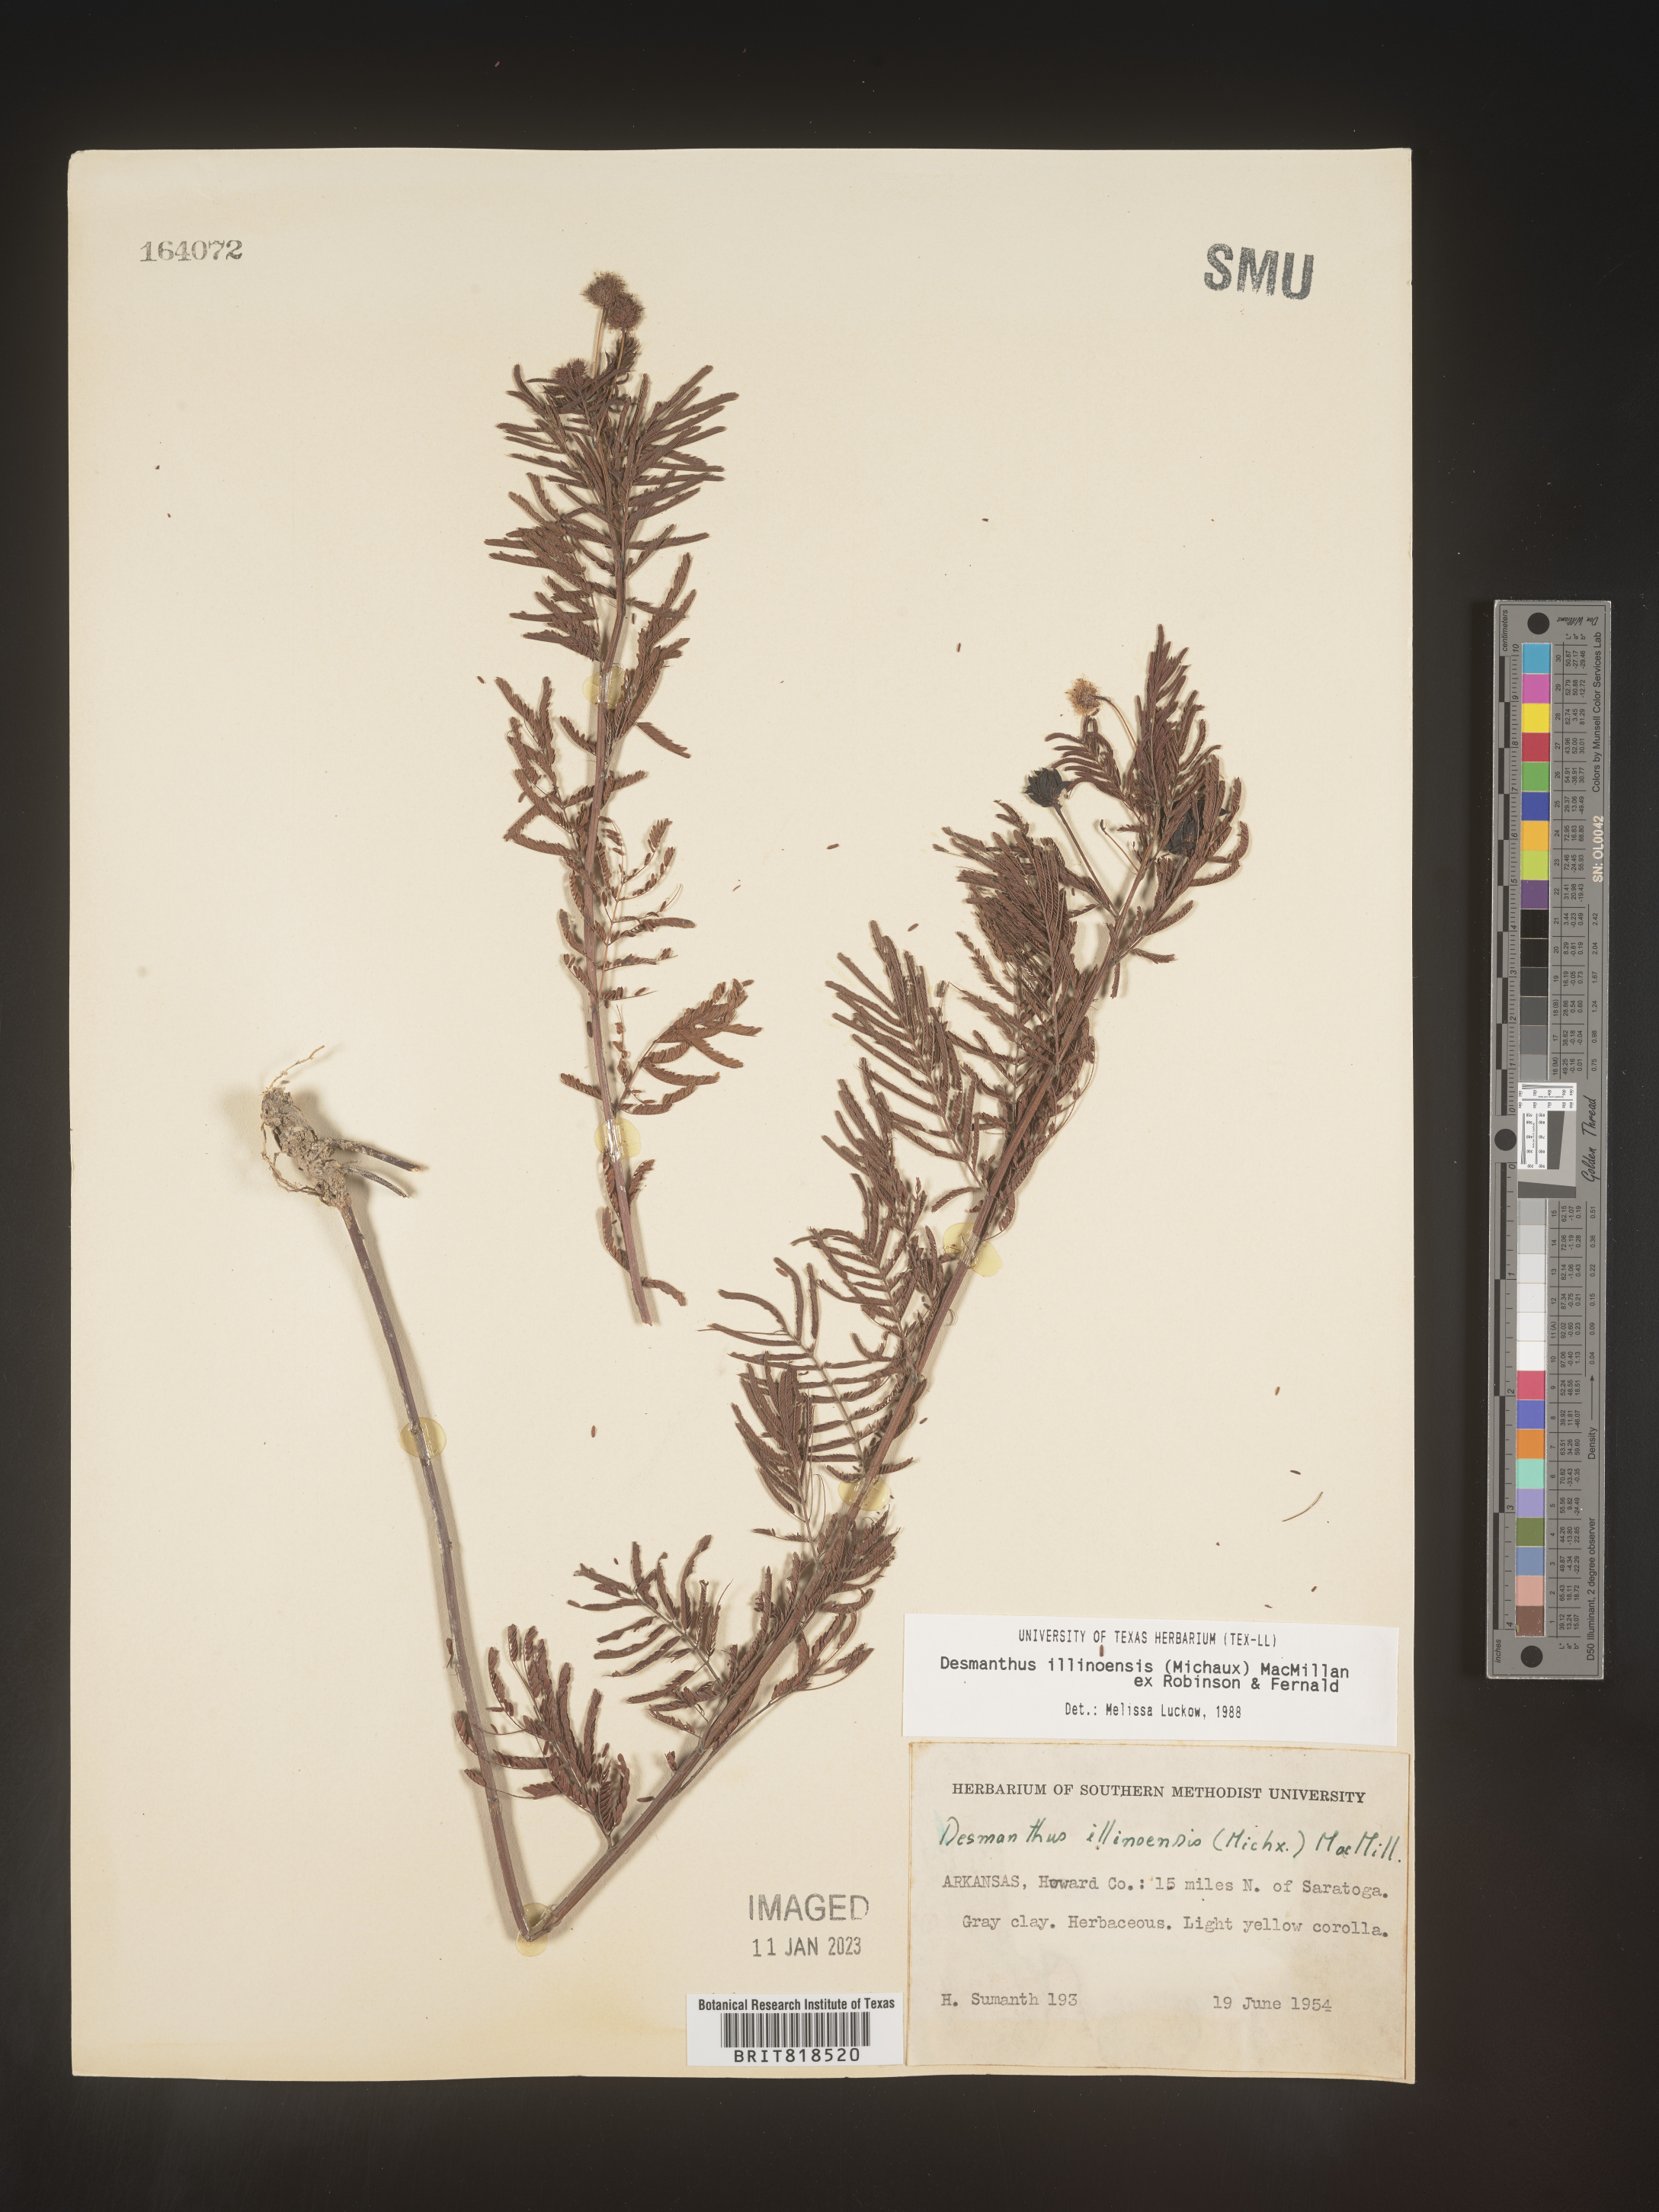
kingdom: Plantae
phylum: Tracheophyta
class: Magnoliopsida
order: Fabales
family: Fabaceae
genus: Desmanthus
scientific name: Desmanthus illinoensis
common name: Illinois bundle-flower
